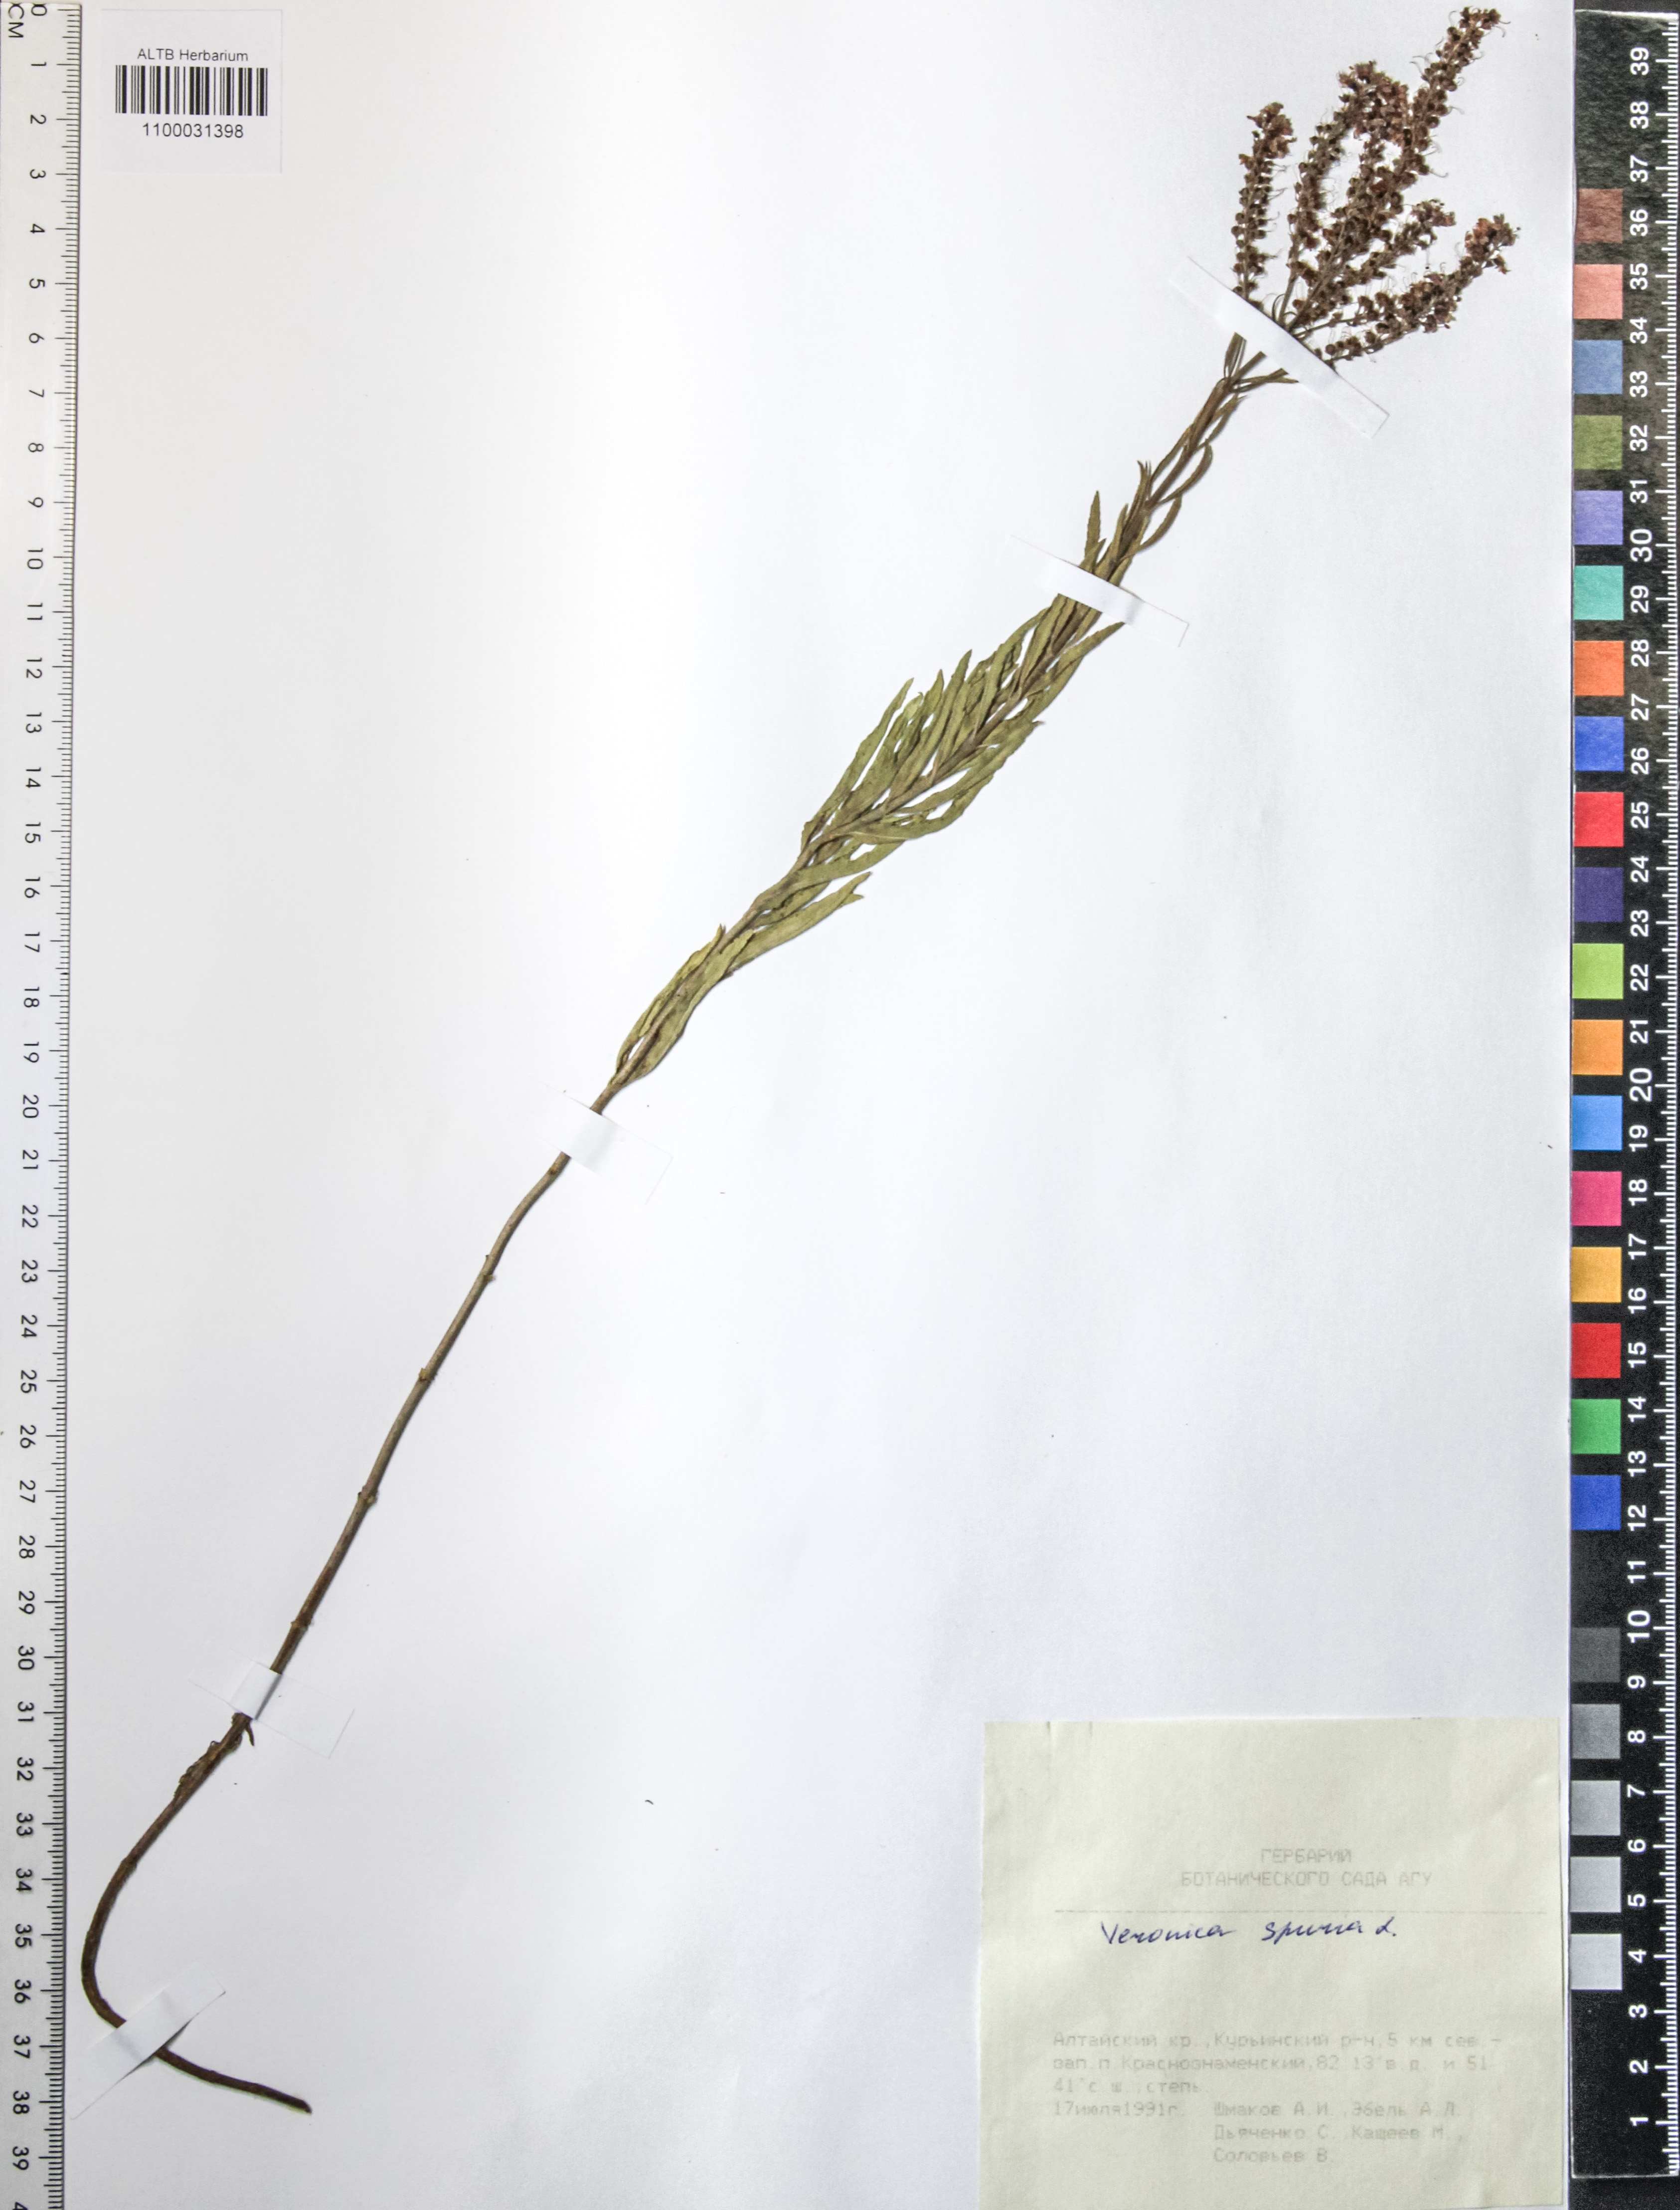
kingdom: Plantae
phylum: Tracheophyta
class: Magnoliopsida
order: Lamiales
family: Plantaginaceae
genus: Veronica
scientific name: Veronica spuria
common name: Bastard speedwell
